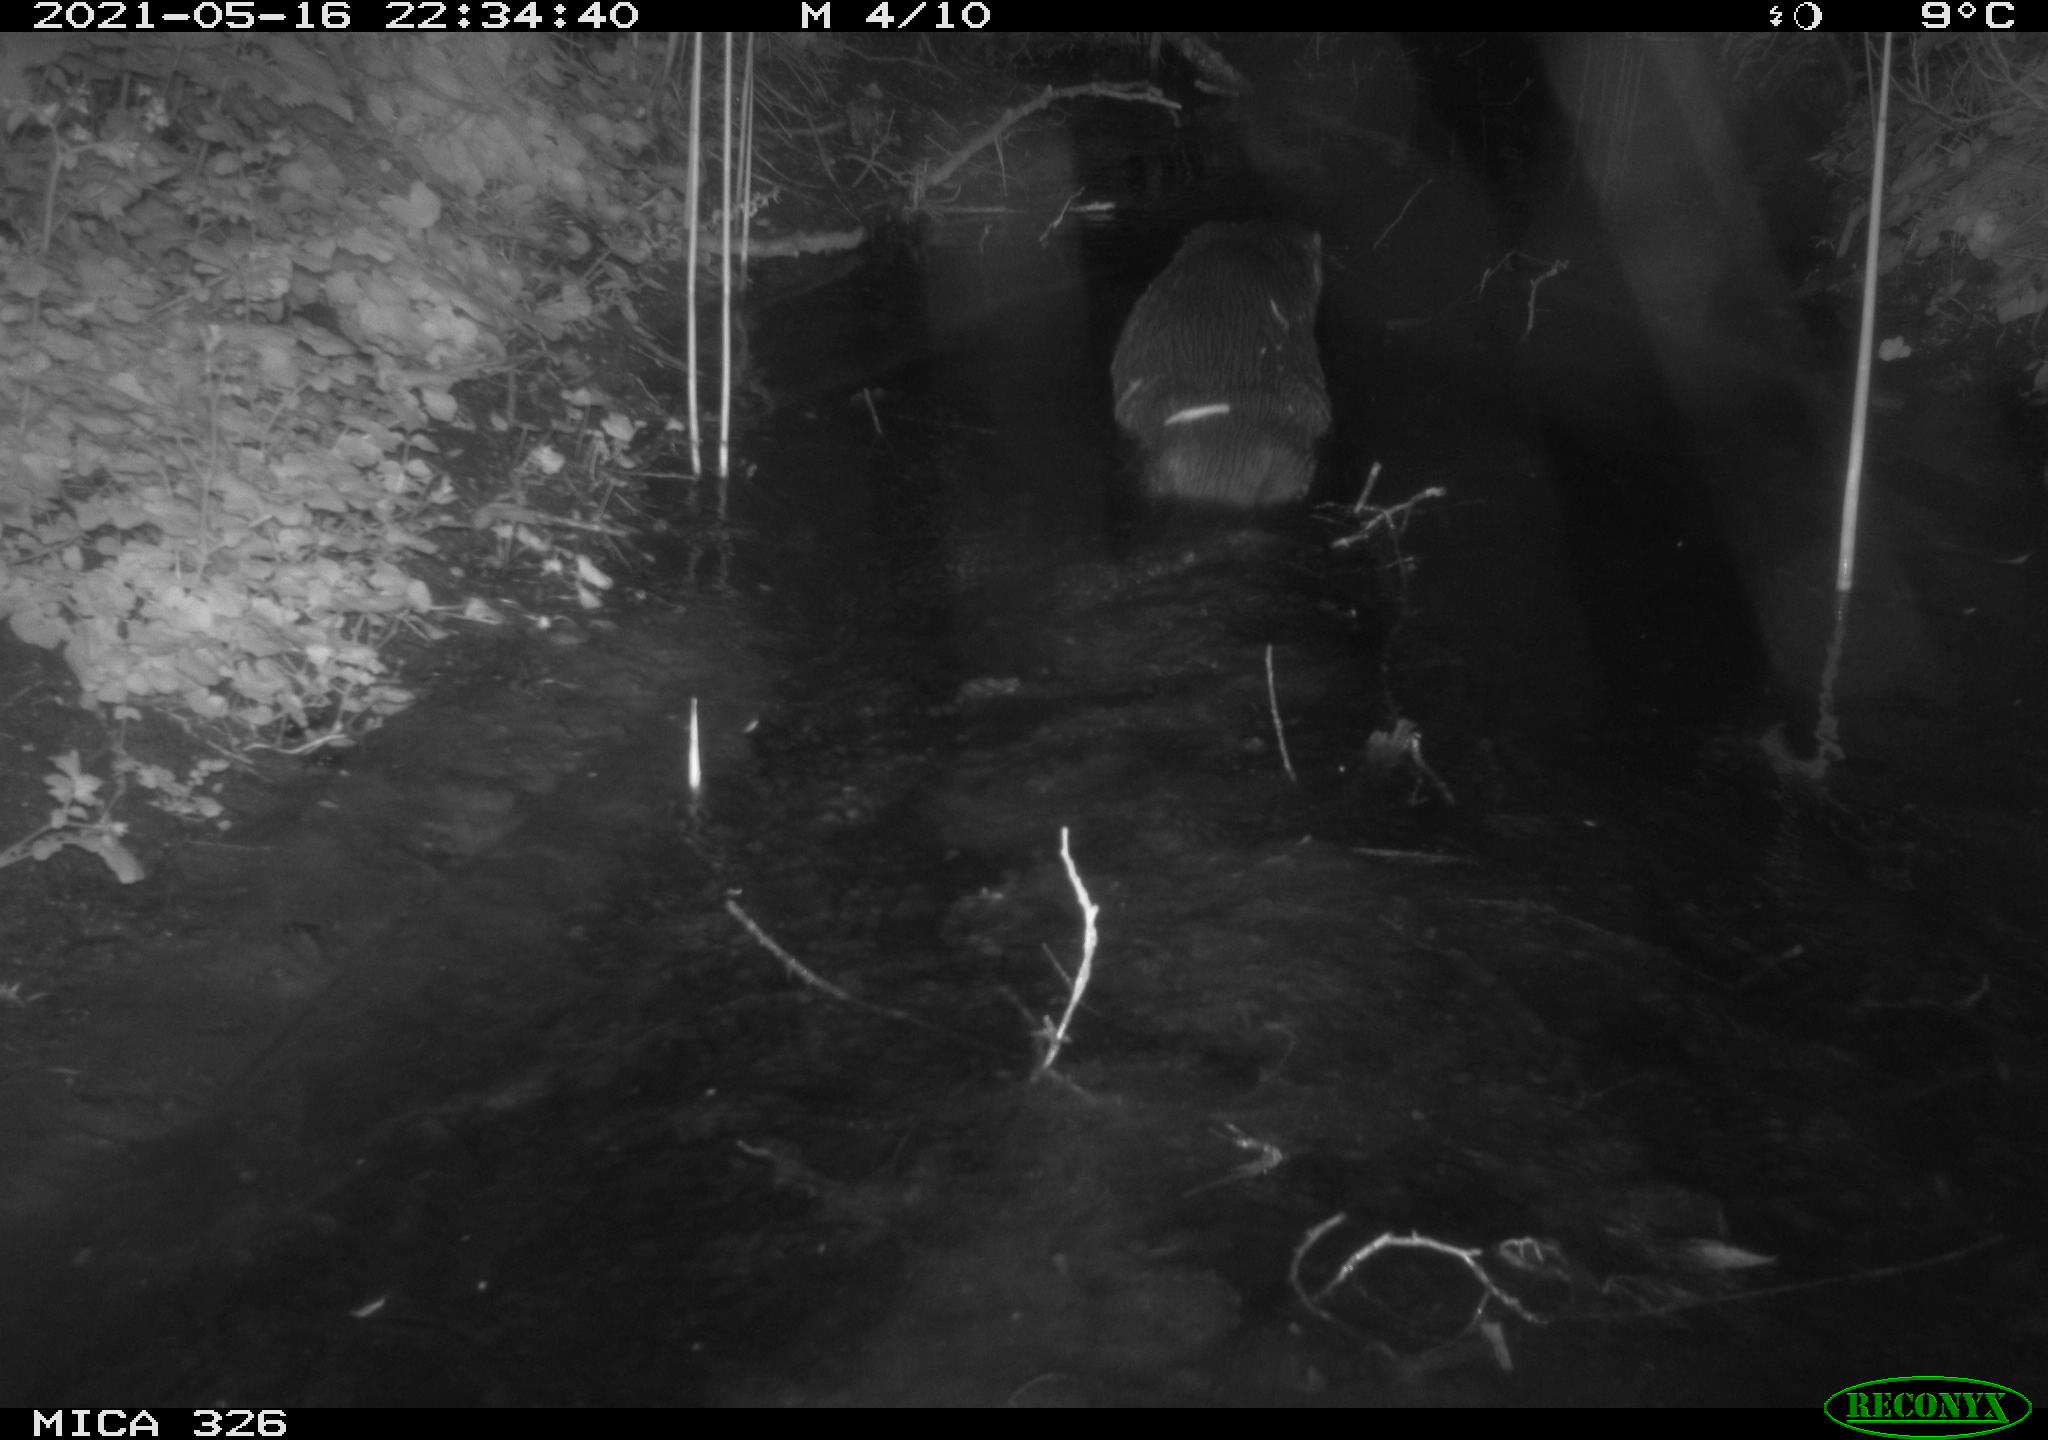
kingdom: Animalia
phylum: Chordata
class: Mammalia
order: Carnivora
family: Mustelidae
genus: Lutra
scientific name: Lutra lutra
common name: European otter
